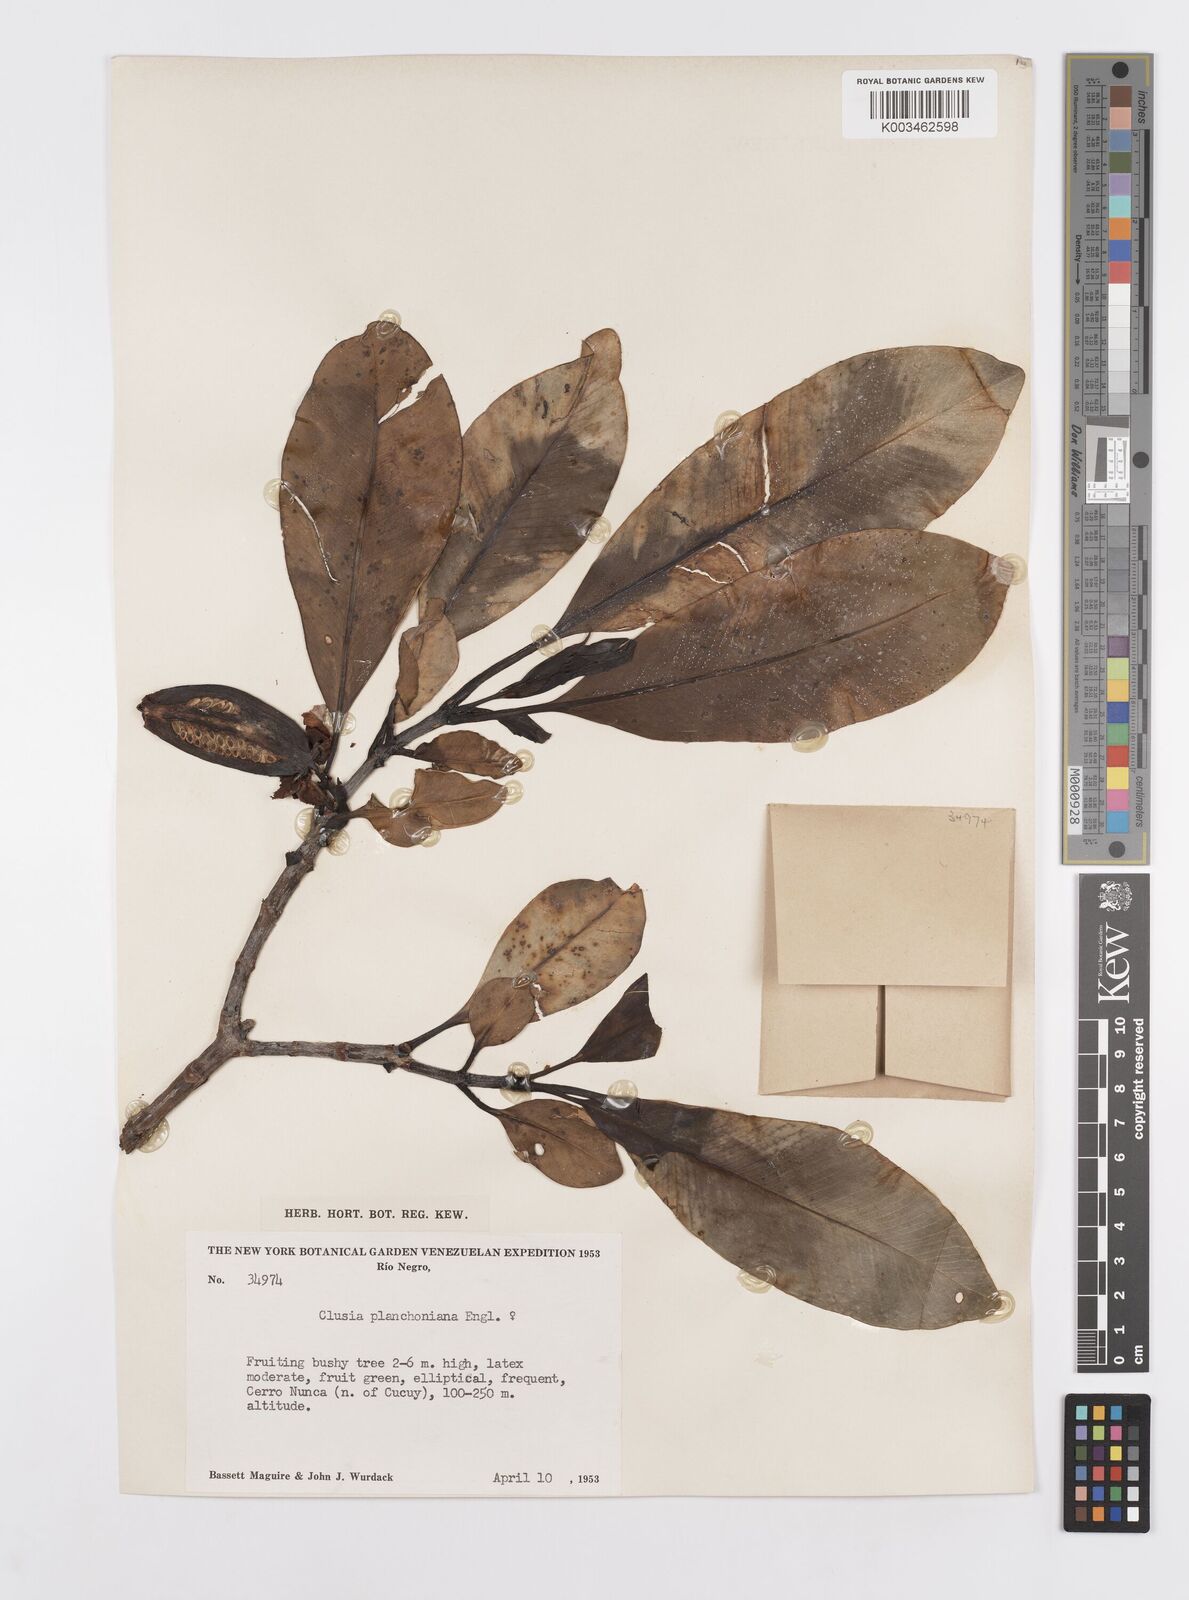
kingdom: Plantae
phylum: Tracheophyta
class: Magnoliopsida
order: Malpighiales
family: Clusiaceae
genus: Clusia
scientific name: Clusia planchoniana
